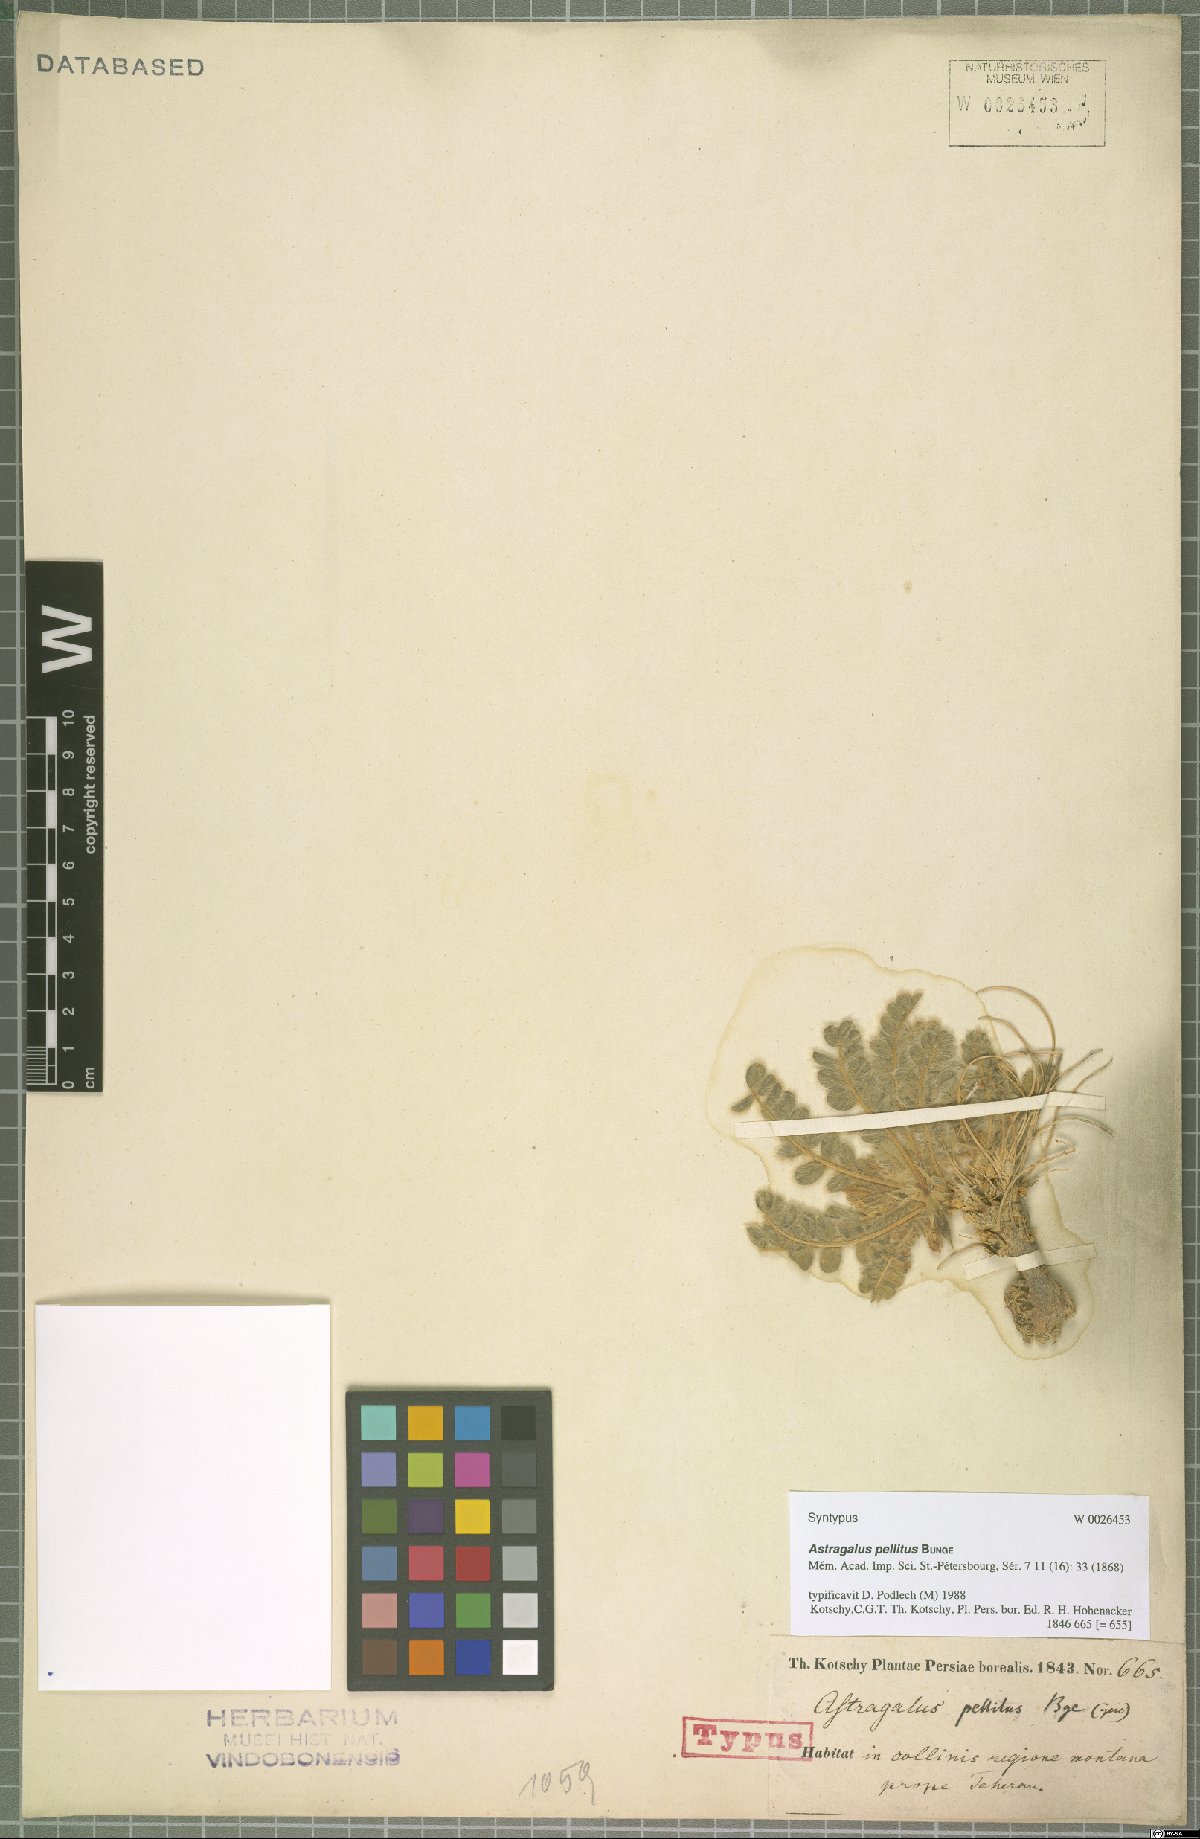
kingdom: Plantae
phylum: Tracheophyta
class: Magnoliopsida
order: Fabales
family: Fabaceae
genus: Astragalus
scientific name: Astragalus pellitus
